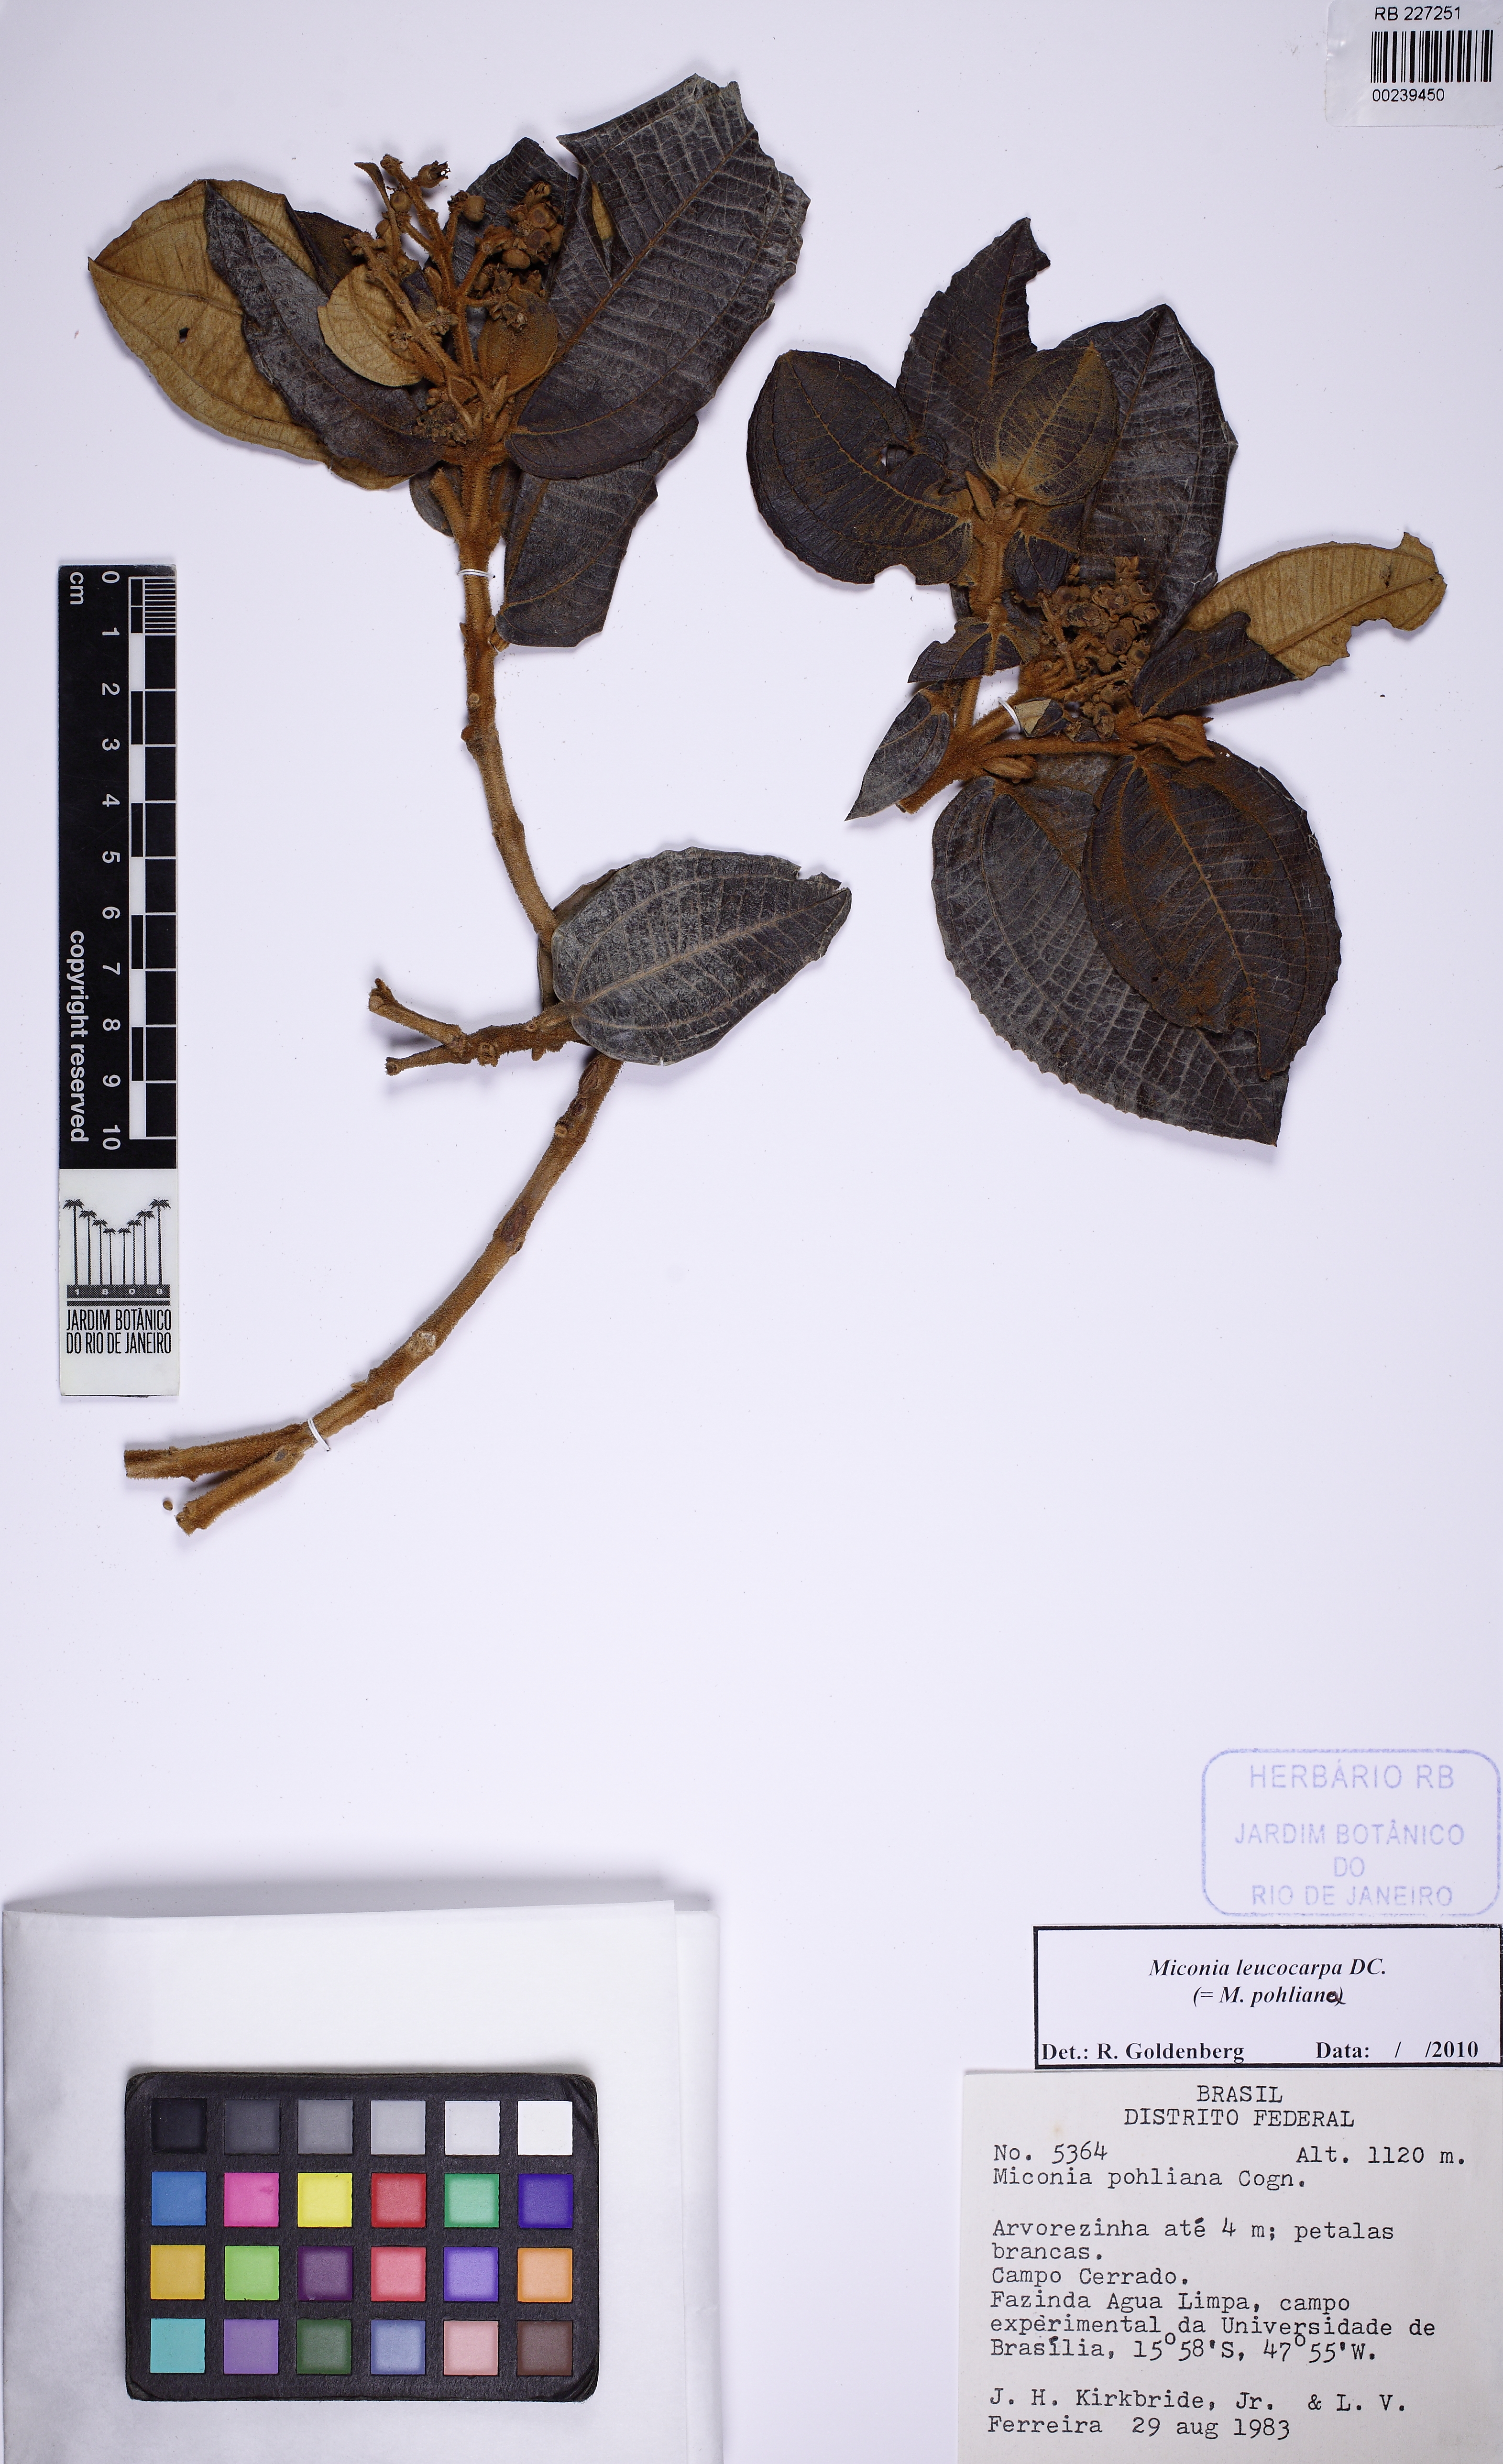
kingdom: Plantae
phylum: Tracheophyta
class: Magnoliopsida
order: Myrtales
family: Melastomataceae
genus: Miconia
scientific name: Miconia leucocarpa
